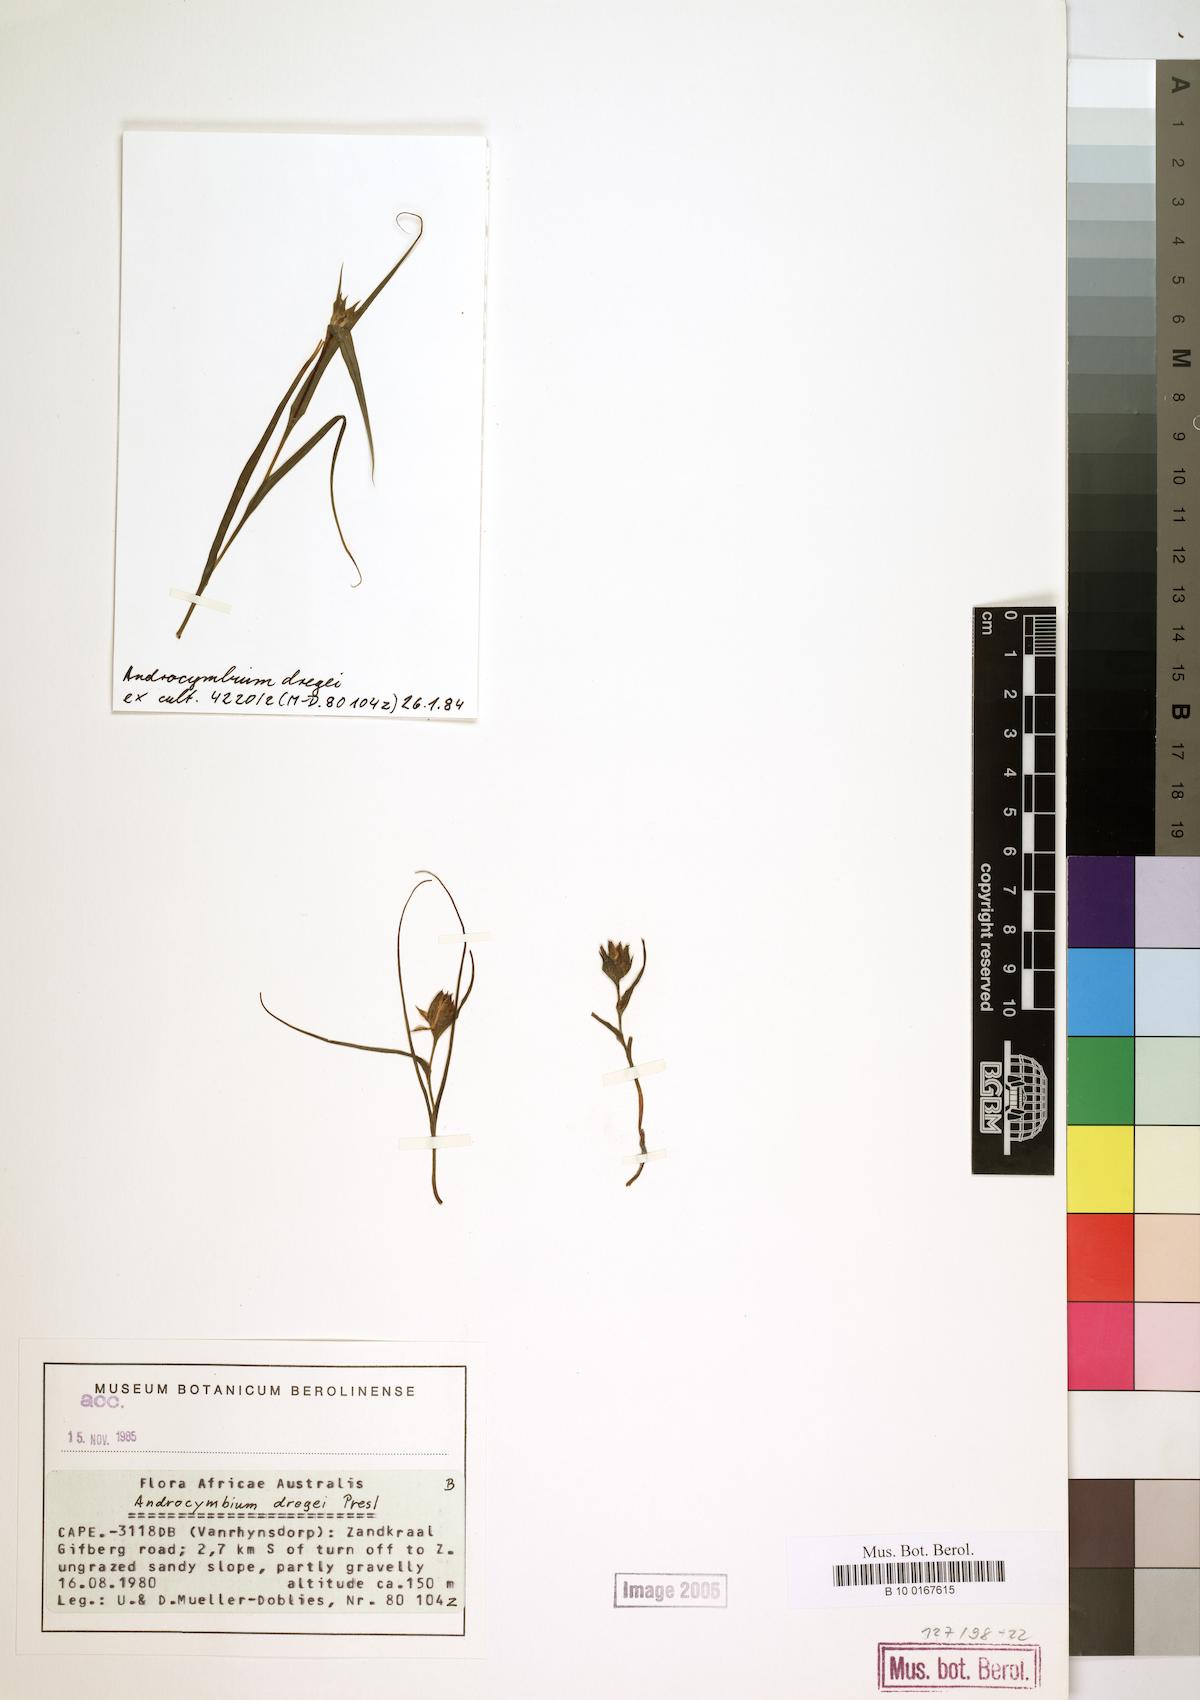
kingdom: Plantae
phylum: Tracheophyta
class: Liliopsida
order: Liliales
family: Colchicaceae
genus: Colchicum
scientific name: Colchicum dregei
